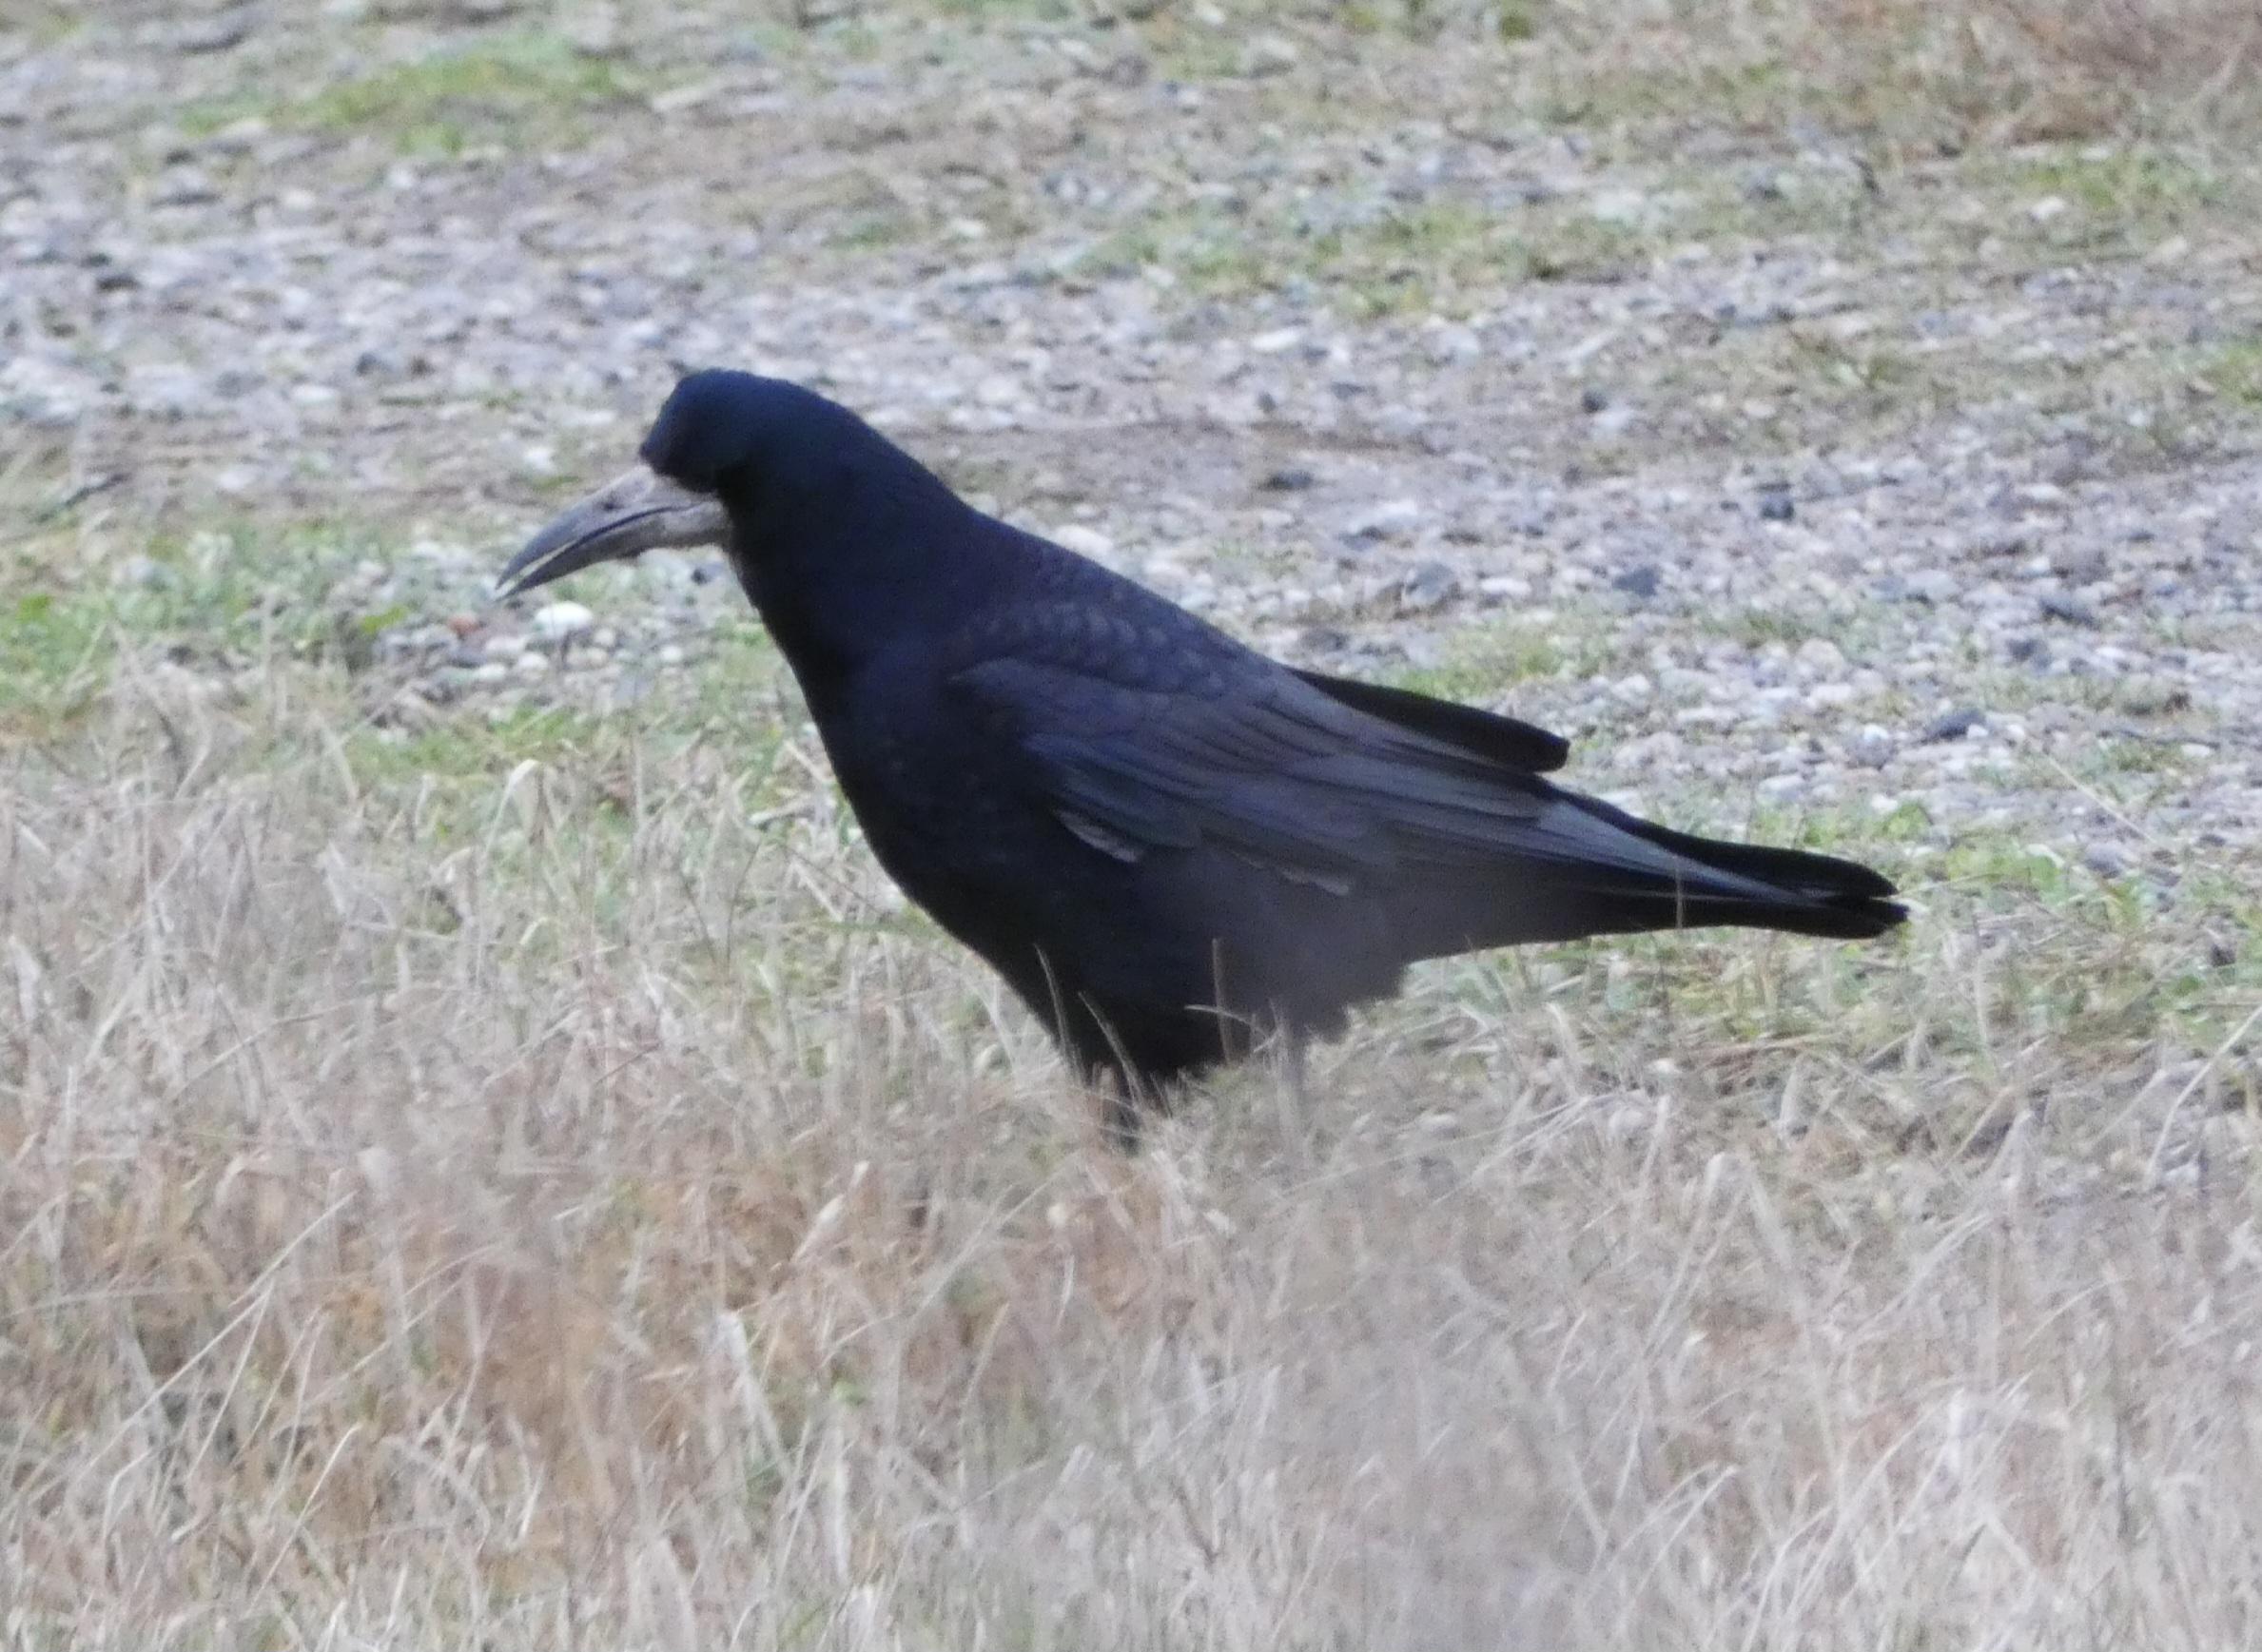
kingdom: Animalia
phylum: Chordata
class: Aves
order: Passeriformes
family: Corvidae
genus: Corvus
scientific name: Corvus frugilegus
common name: Råge
